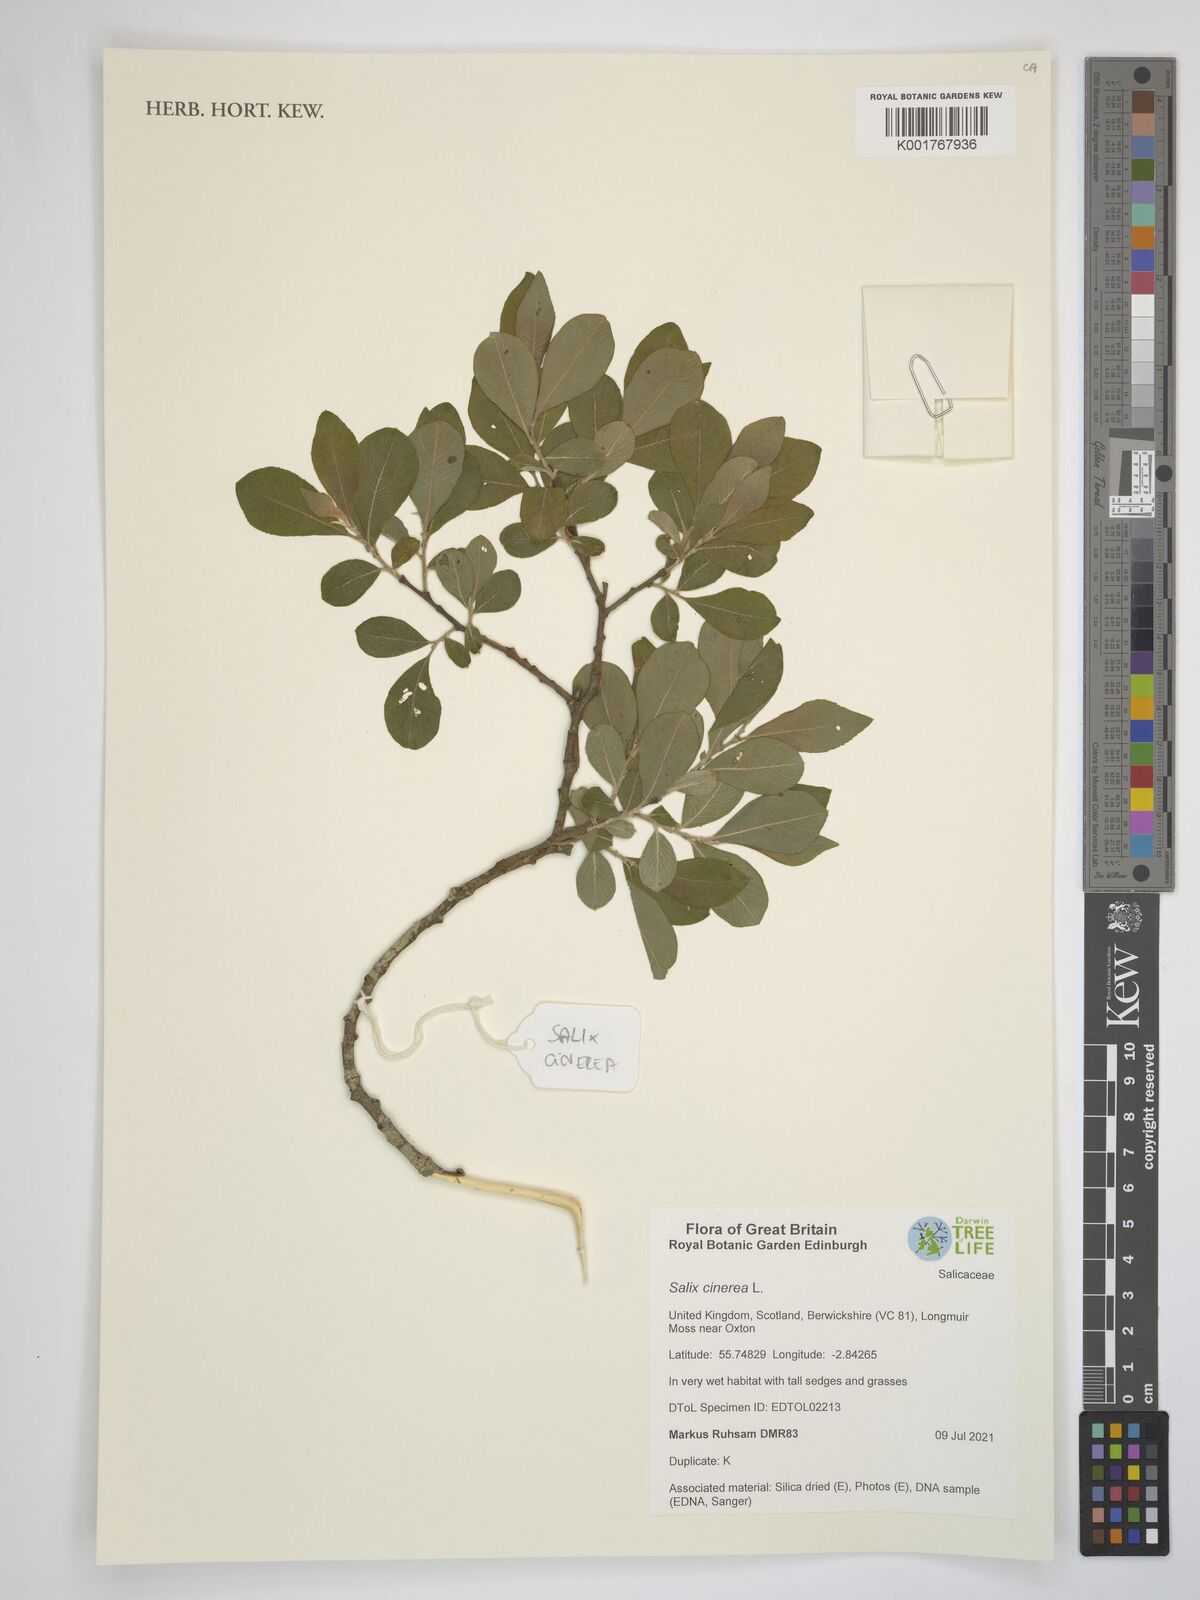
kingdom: Plantae
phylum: Tracheophyta
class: Magnoliopsida
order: Malpighiales
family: Salicaceae
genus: Salix
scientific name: Salix cinerea
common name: Common sallow
